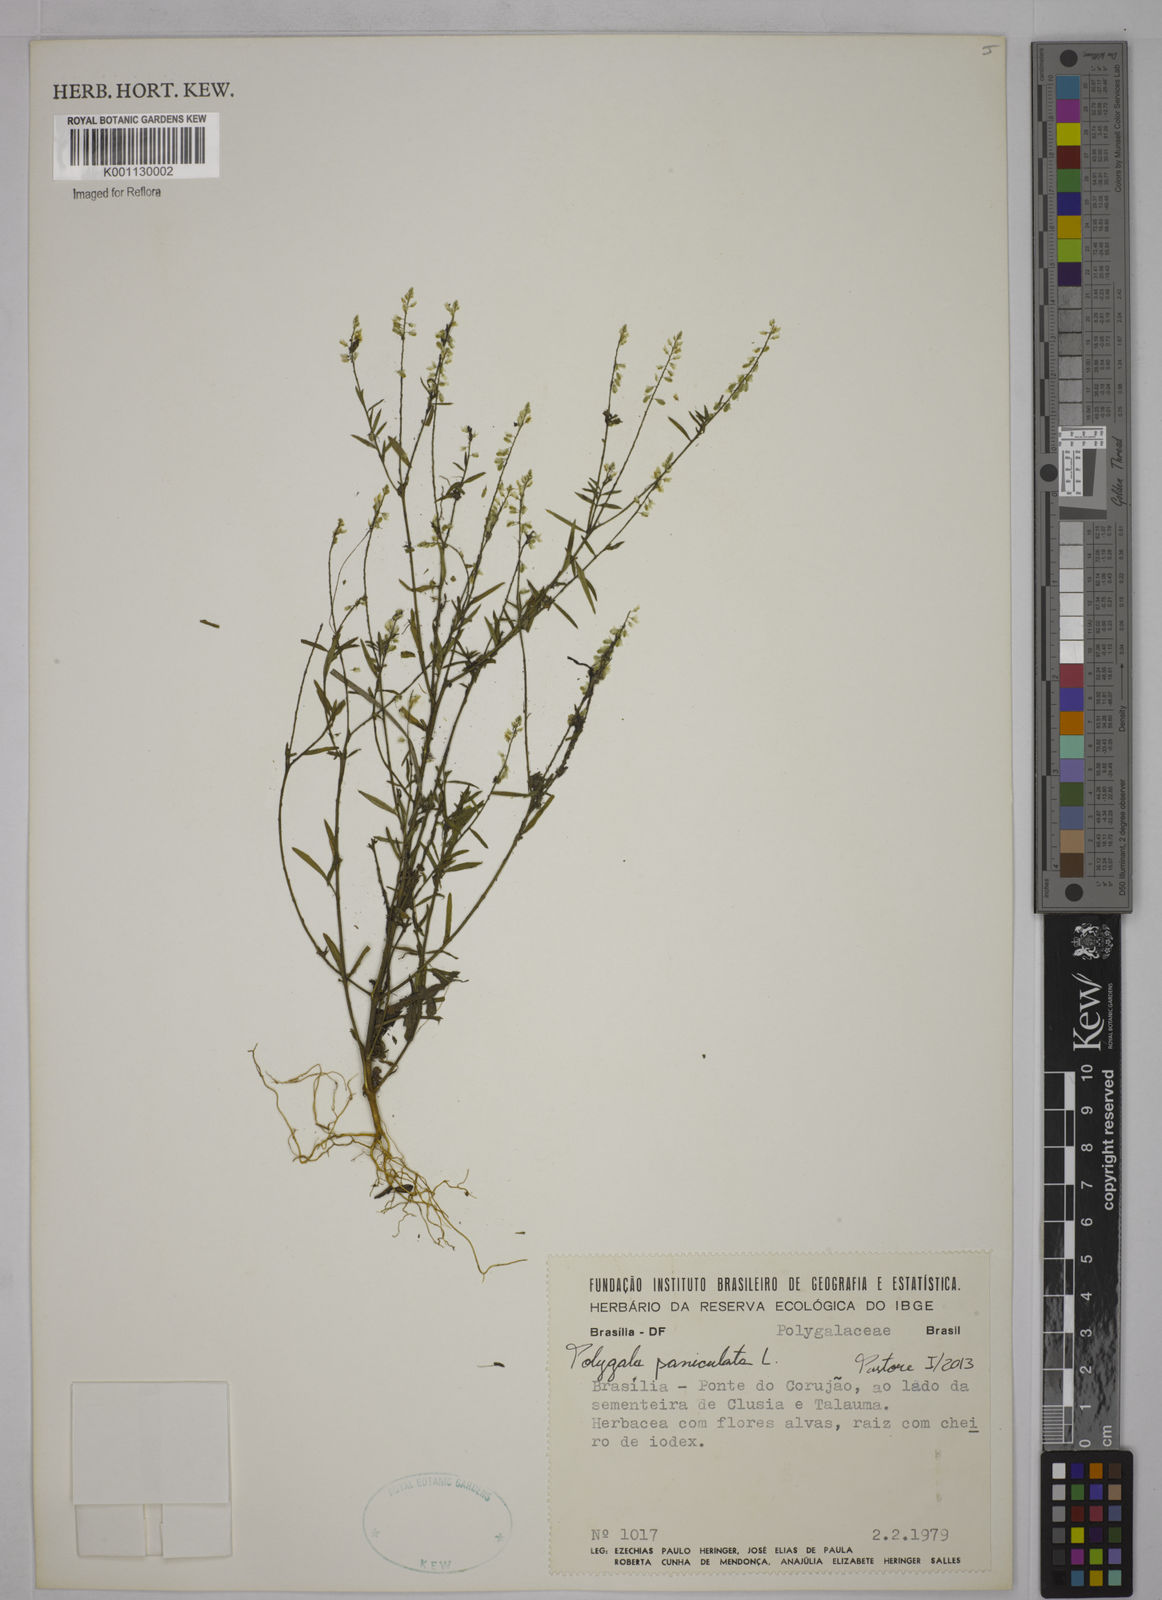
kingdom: Plantae
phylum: Tracheophyta
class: Magnoliopsida
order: Fabales
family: Polygalaceae
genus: Polygala
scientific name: Polygala paniculata
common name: Orosne
